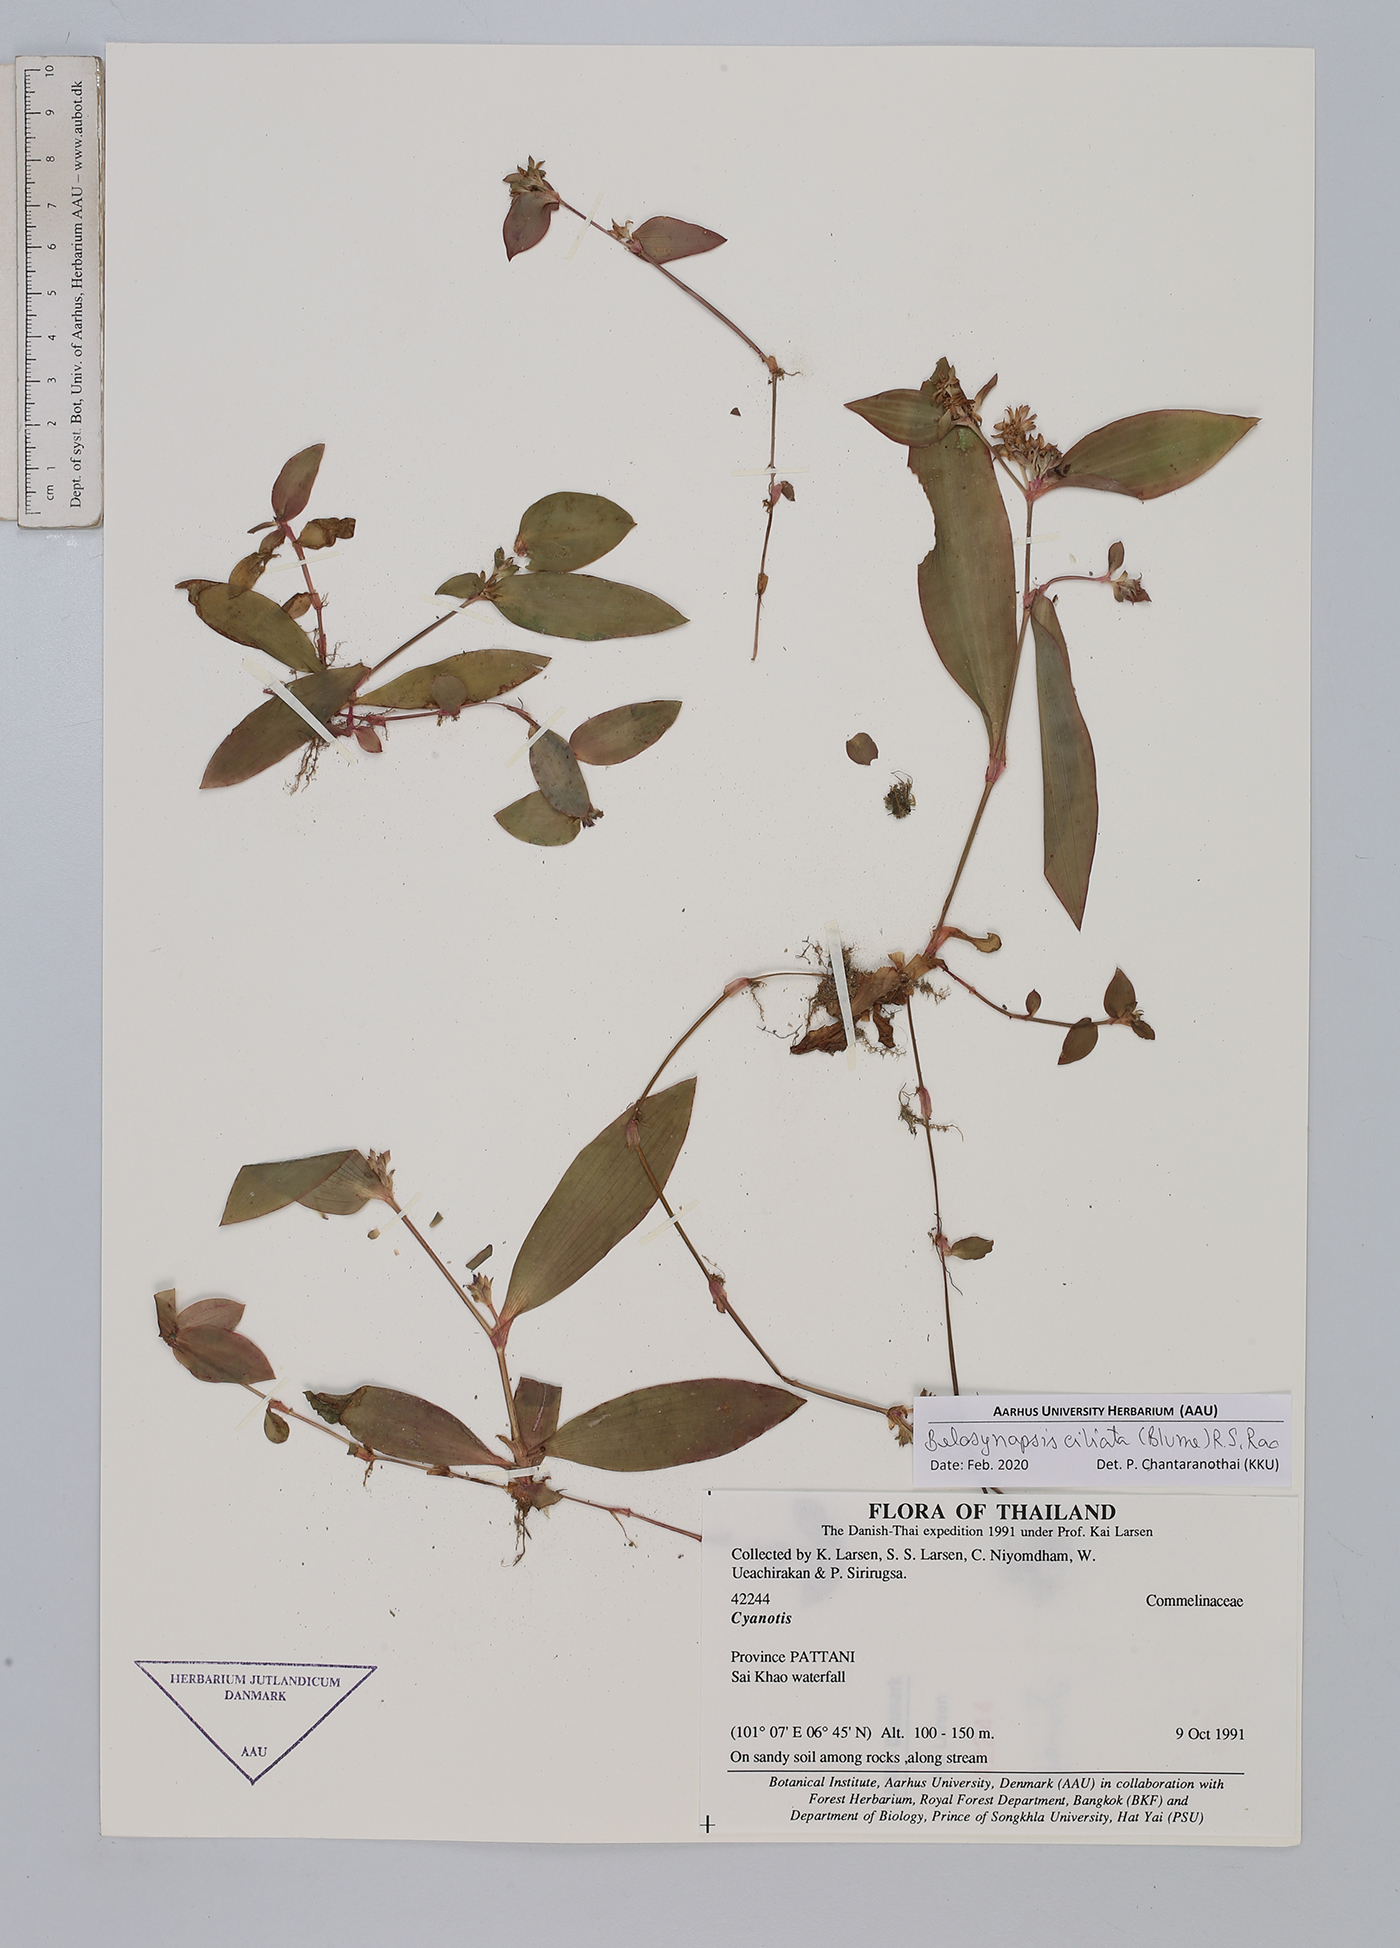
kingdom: Plantae
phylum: Tracheophyta
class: Liliopsida
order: Commelinales
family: Commelinaceae
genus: Cyanotis
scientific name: Cyanotis ciliata
